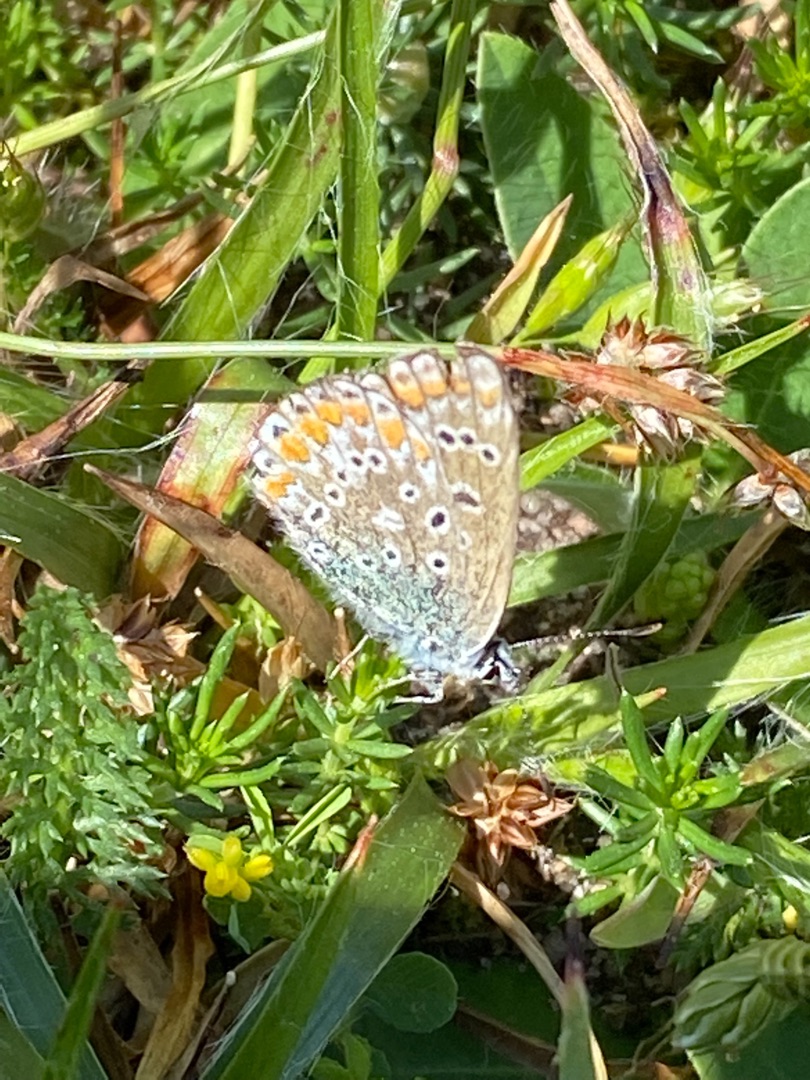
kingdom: Animalia
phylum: Arthropoda
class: Insecta
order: Lepidoptera
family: Lycaenidae
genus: Polyommatus
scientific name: Polyommatus icarus
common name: Almindelig blåfugl
